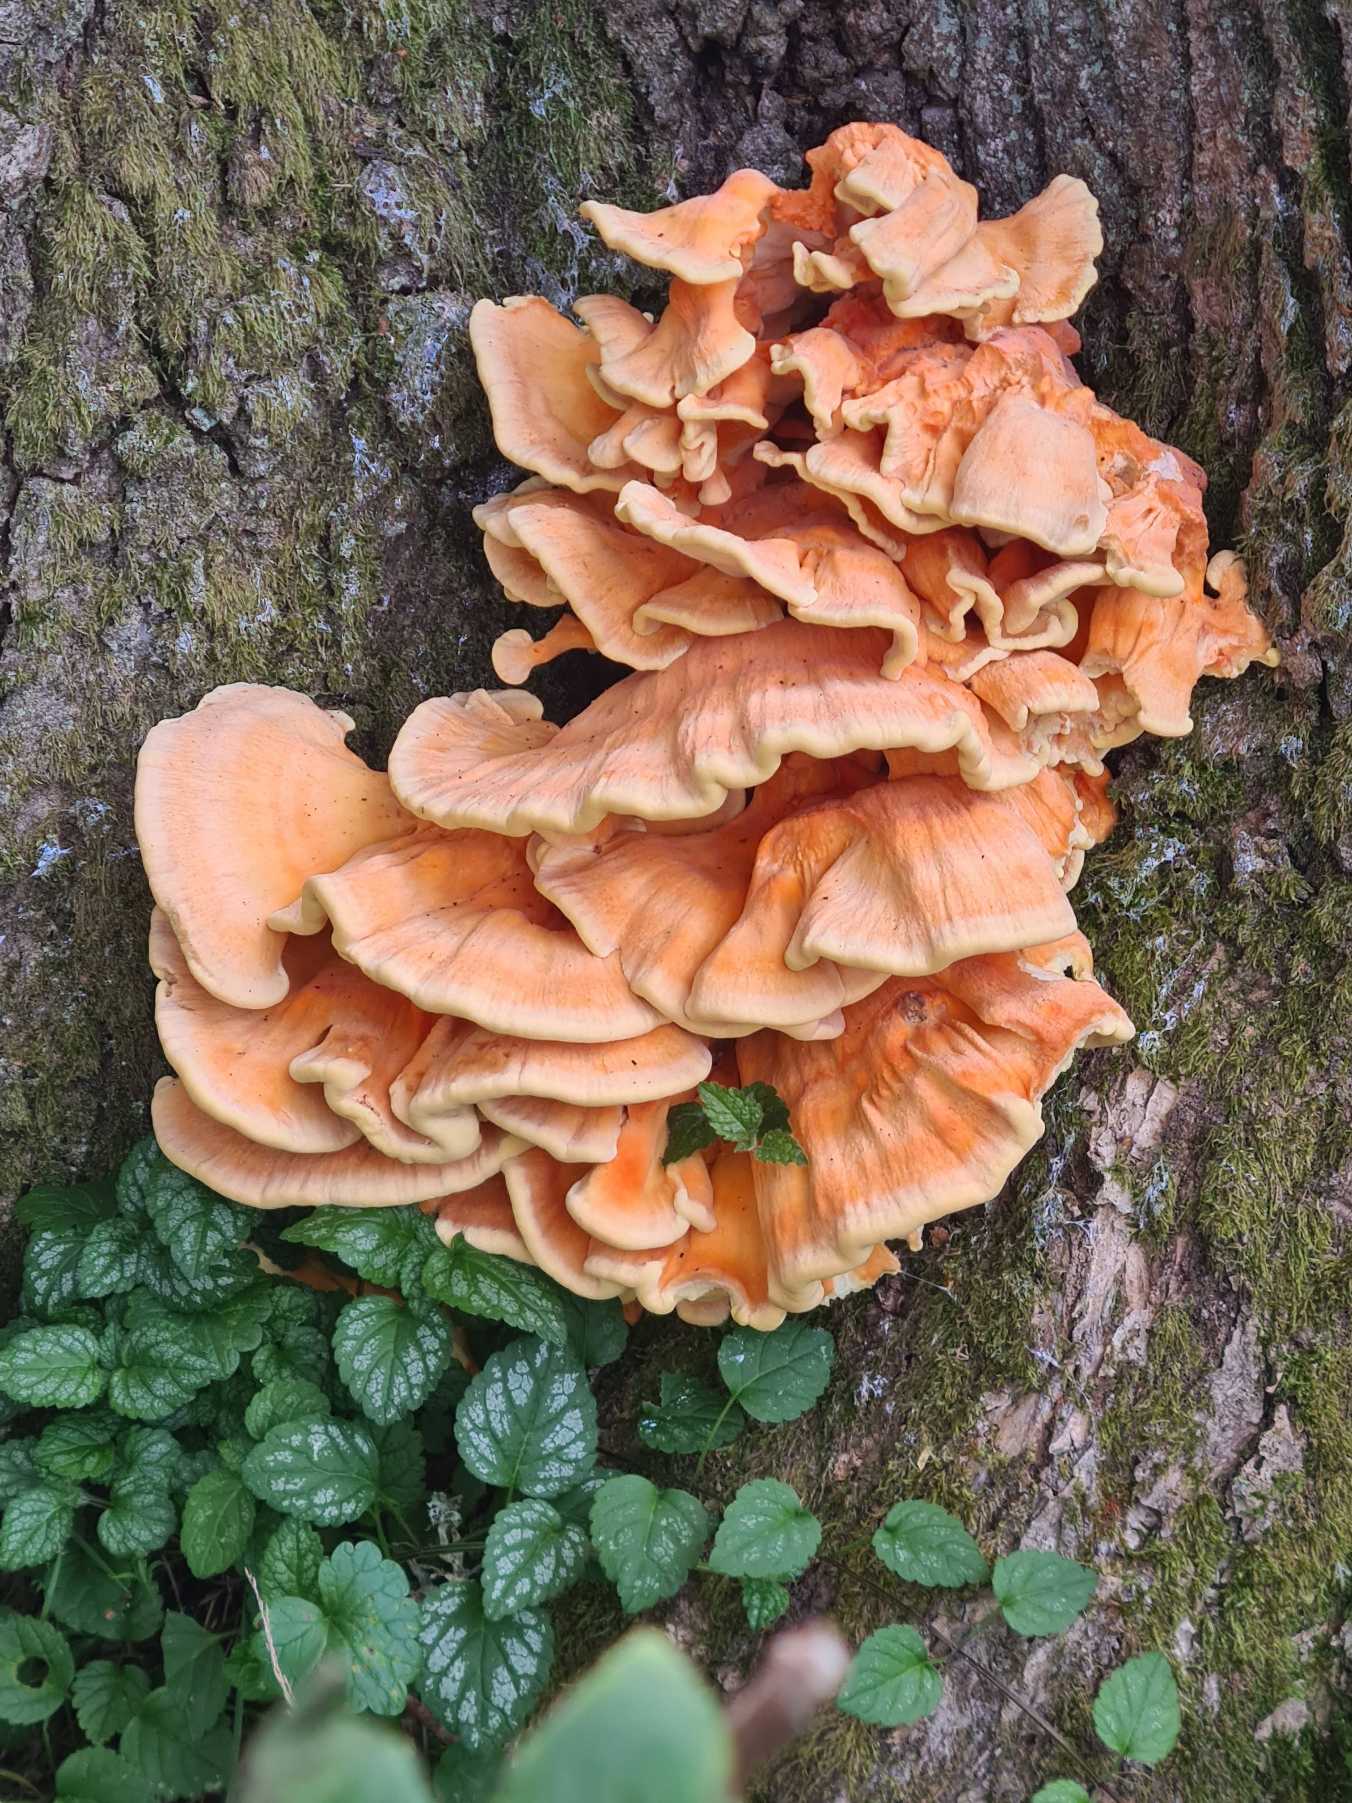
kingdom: Fungi
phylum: Basidiomycota
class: Agaricomycetes
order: Polyporales
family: Laetiporaceae
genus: Laetiporus
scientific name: Laetiporus sulphureus
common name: Svovlporesvamp
